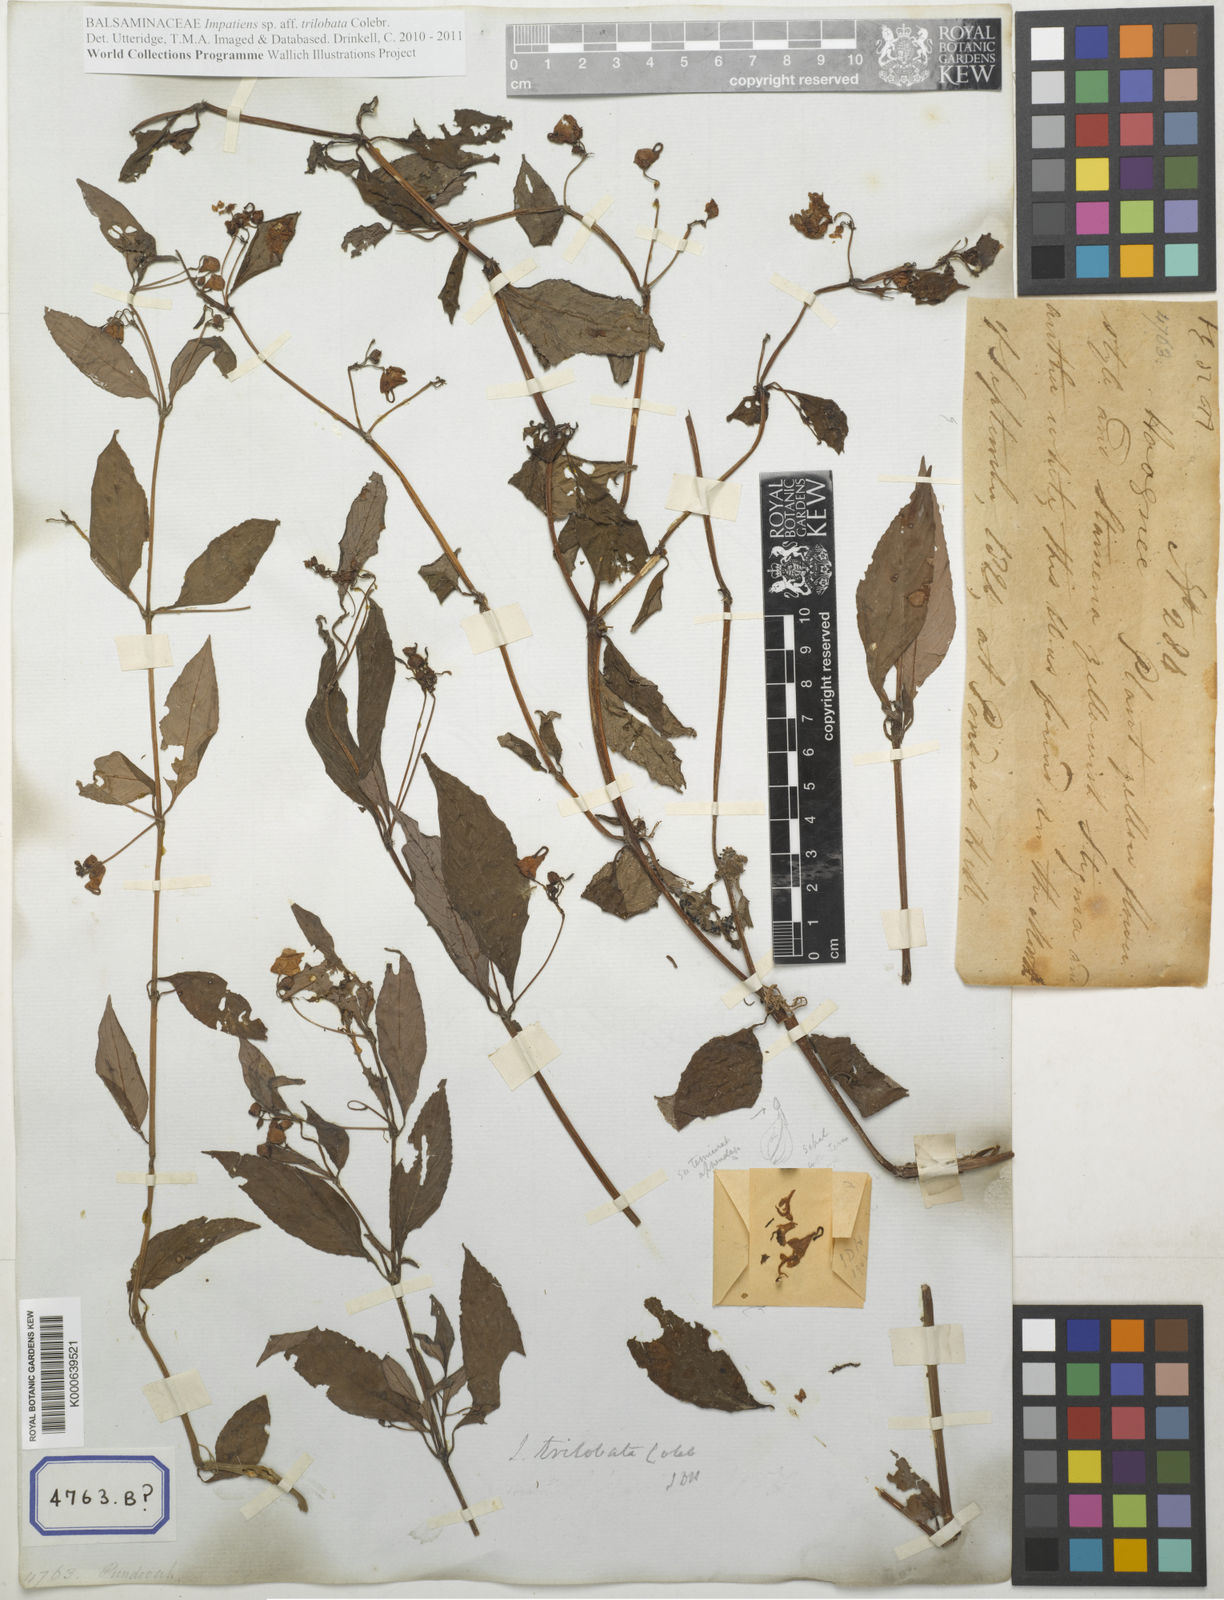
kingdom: Plantae
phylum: Tracheophyta
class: Magnoliopsida
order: Ericales
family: Balsaminaceae
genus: Impatiens
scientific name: Impatiens trilobata
